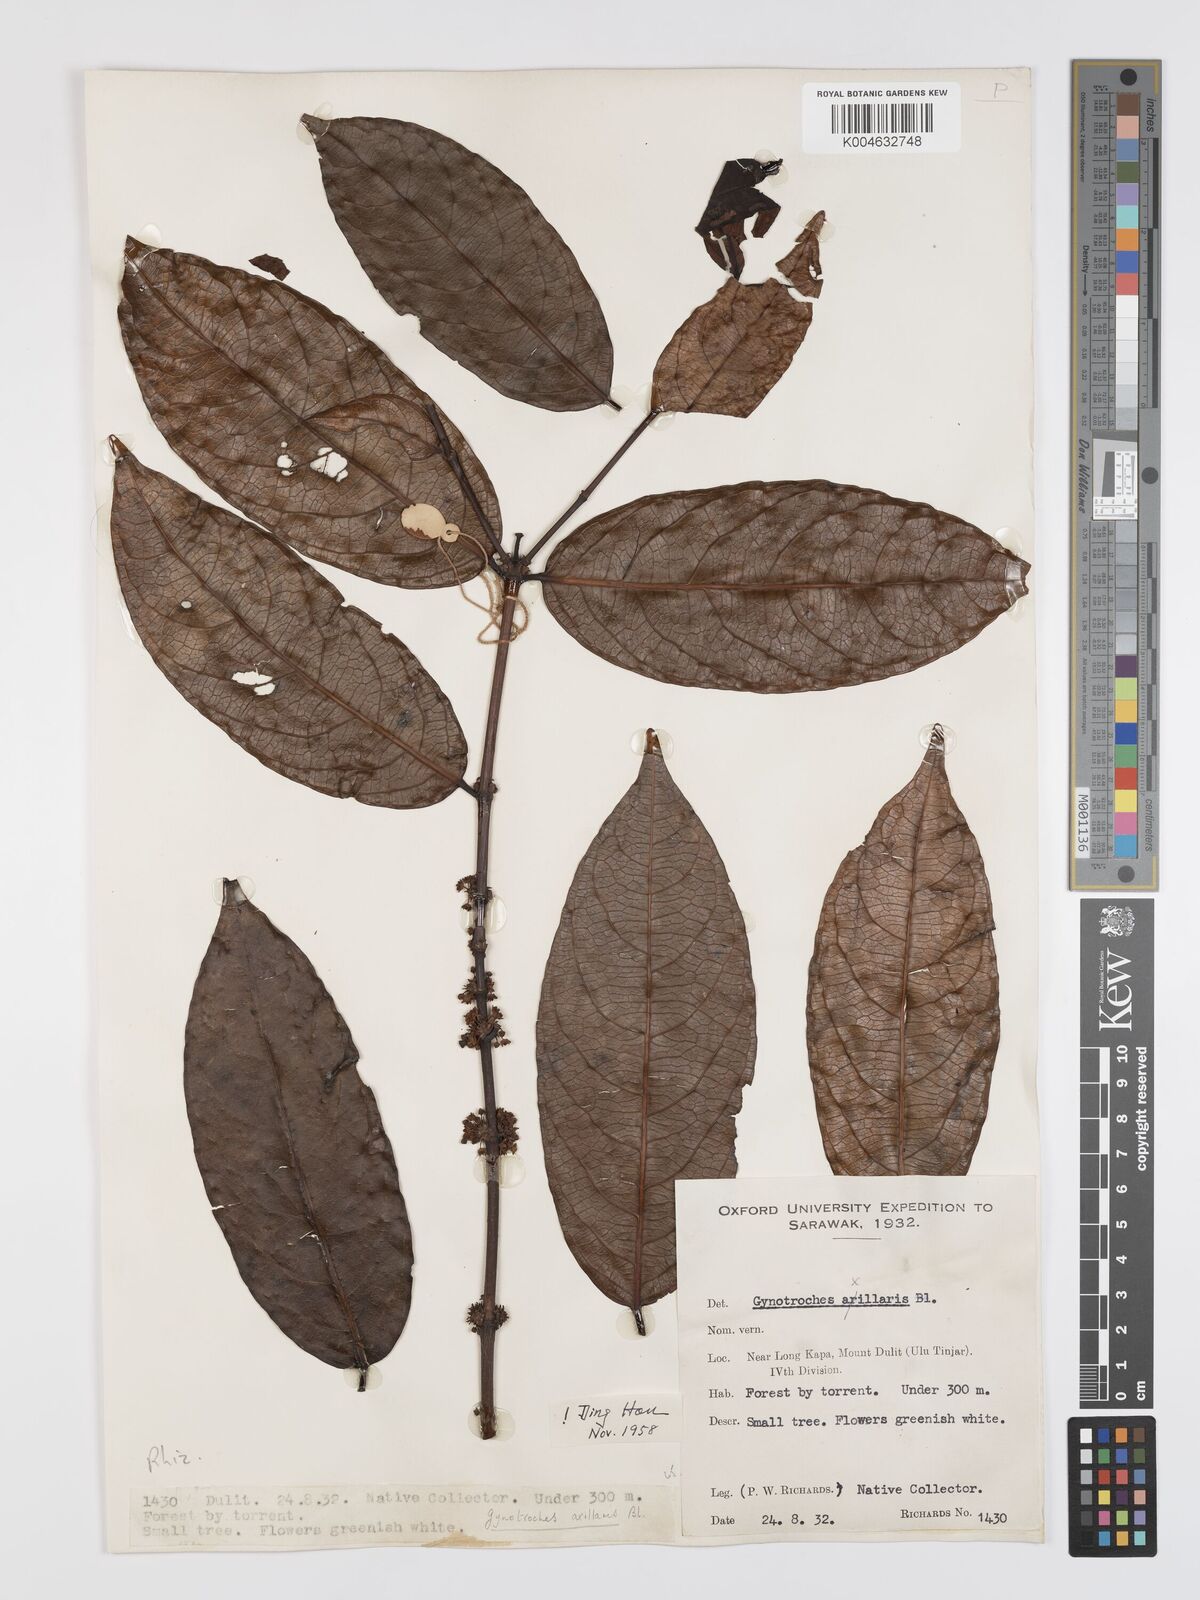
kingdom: Plantae
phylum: Tracheophyta
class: Magnoliopsida
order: Malpighiales
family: Rhizophoraceae
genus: Gynotroches
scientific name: Gynotroches axillaris
